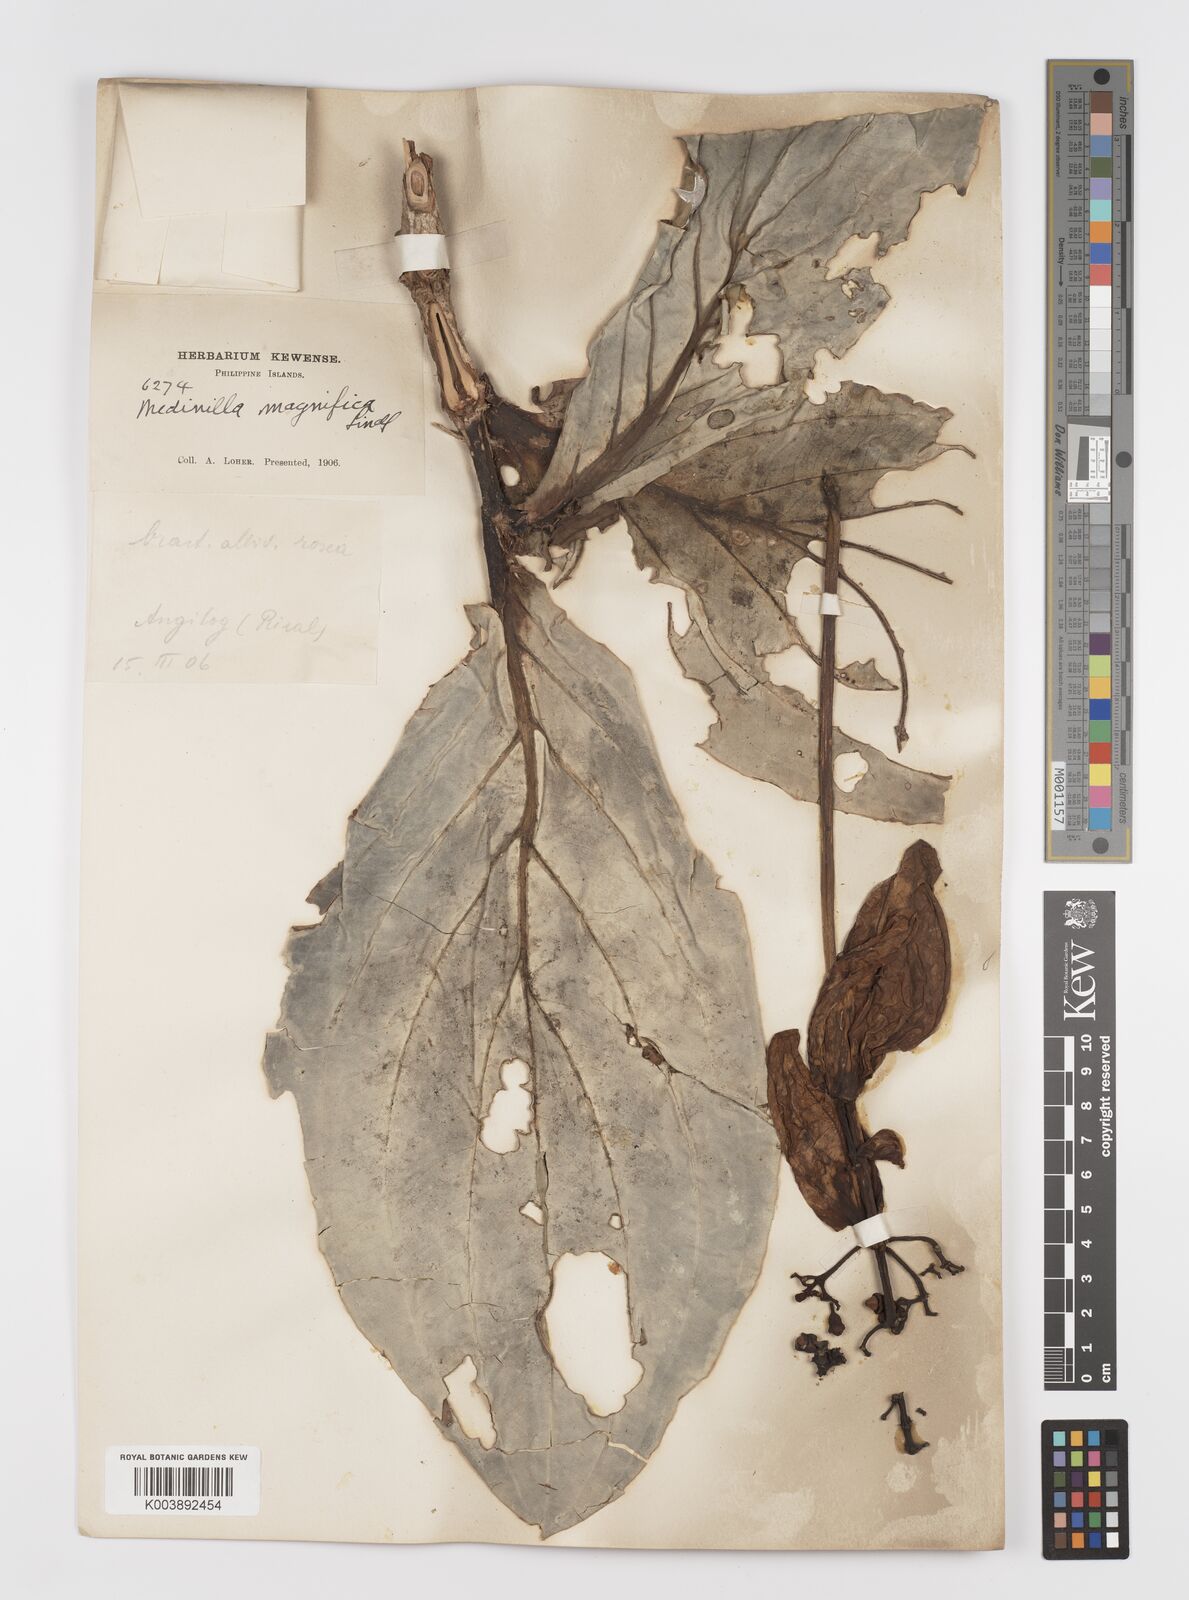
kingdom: Plantae
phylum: Tracheophyta
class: Magnoliopsida
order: Myrtales
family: Melastomataceae
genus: Medinilla
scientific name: Medinilla magnifica
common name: Showy medinilla
